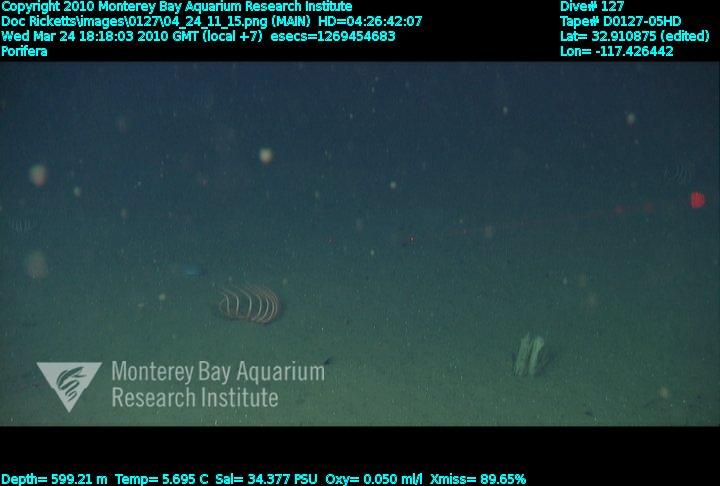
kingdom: Animalia
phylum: Porifera
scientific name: Porifera
